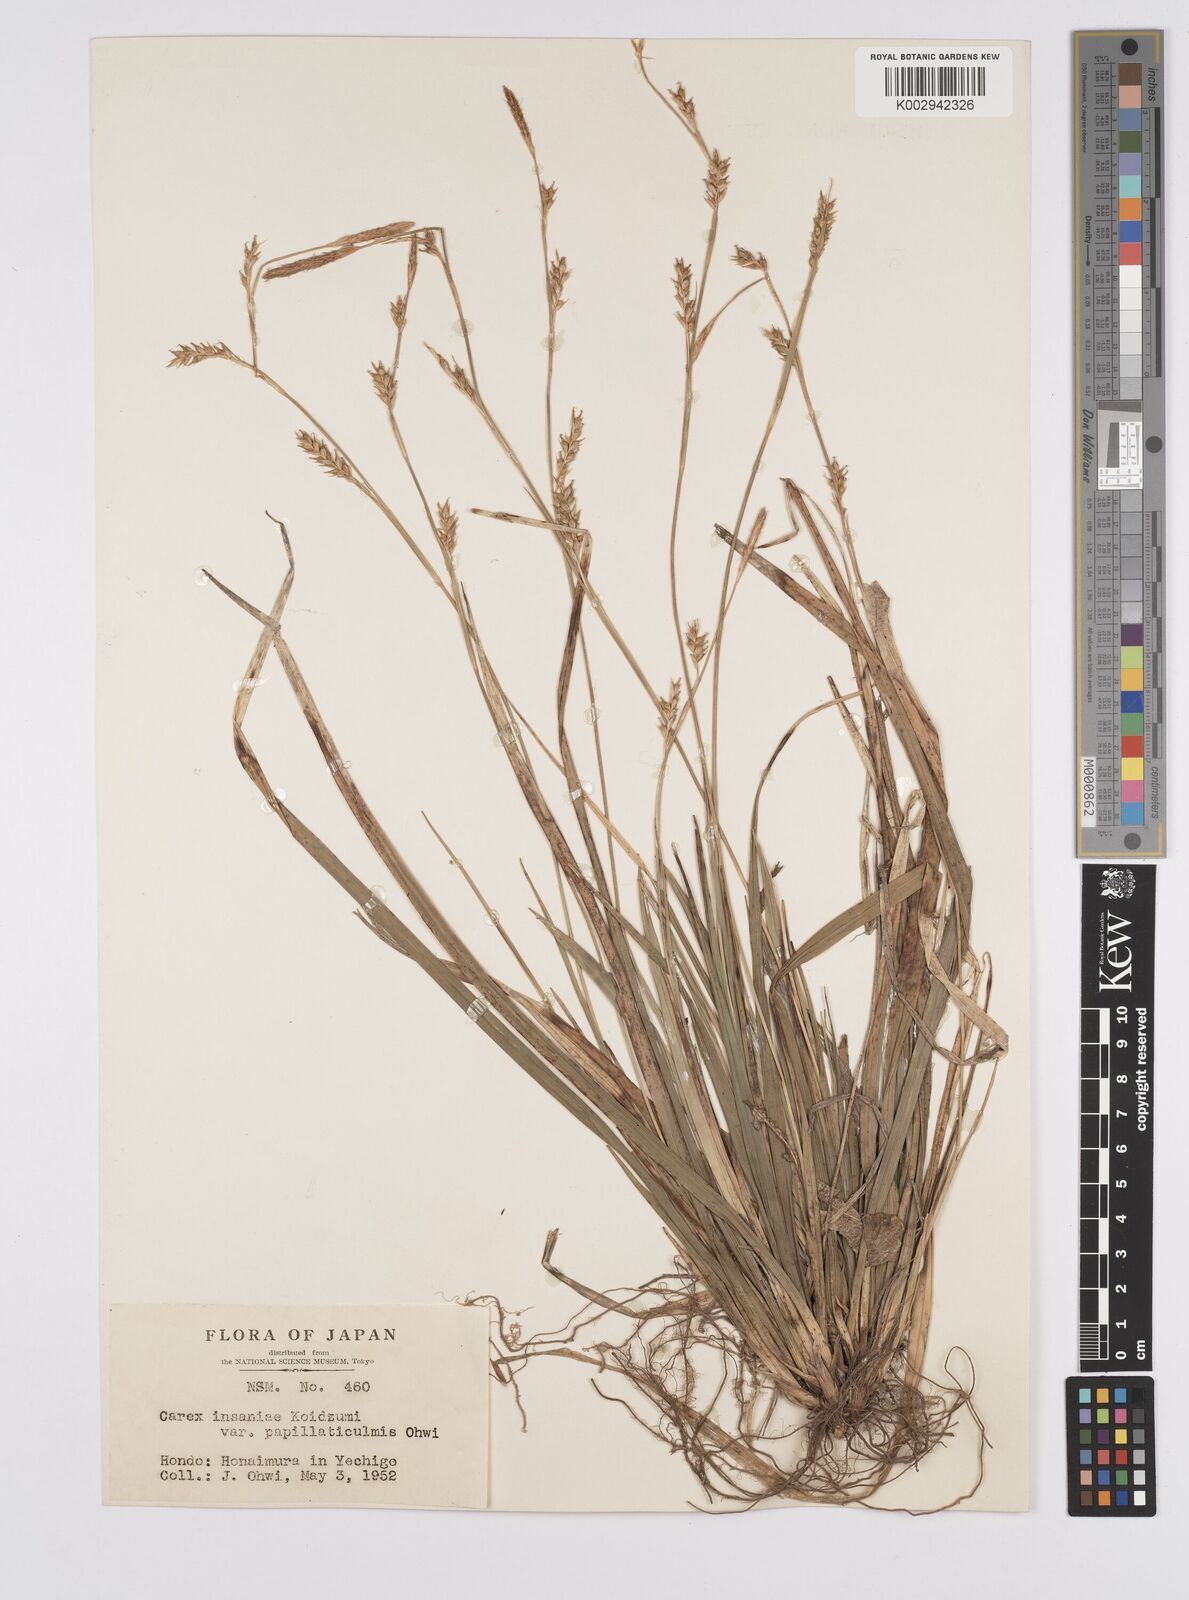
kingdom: Plantae
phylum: Tracheophyta
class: Liliopsida
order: Poales
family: Cyperaceae
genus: Carex
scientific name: Carex insaniae
